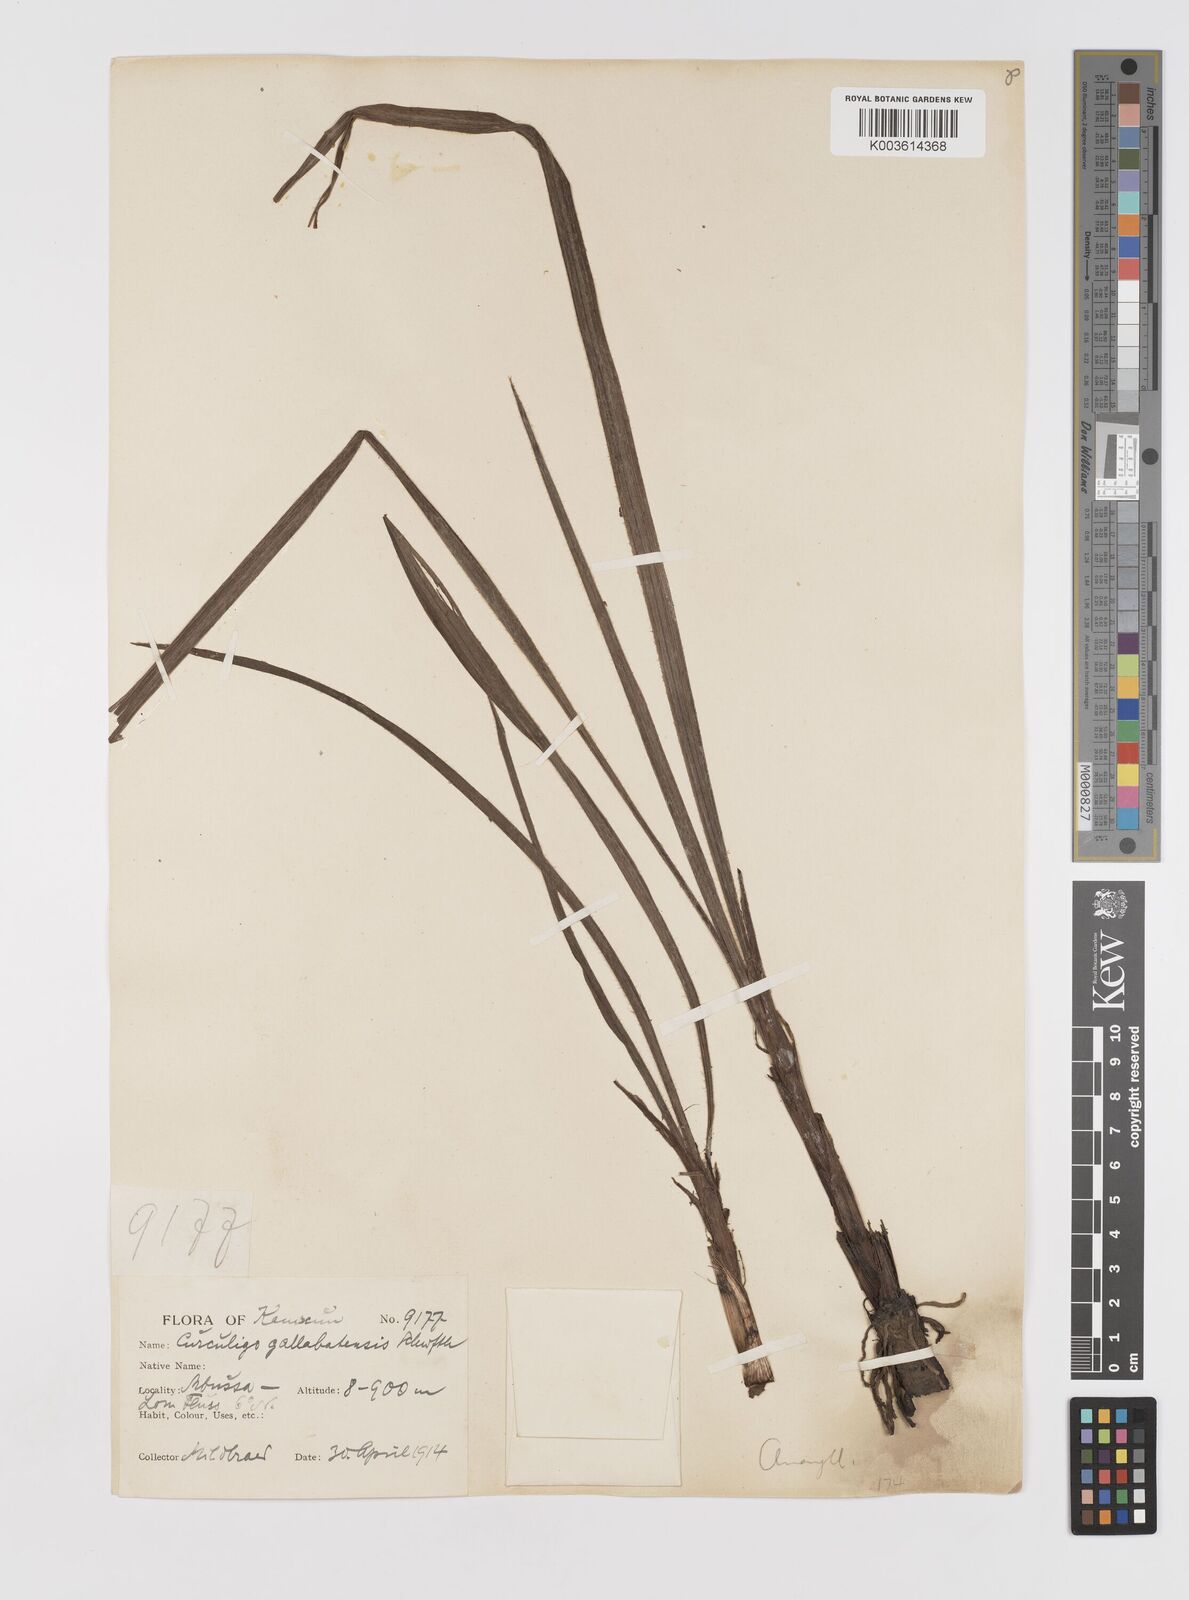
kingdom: Plantae
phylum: Tracheophyta
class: Liliopsida
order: Asparagales
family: Hypoxidaceae
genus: Curculigo
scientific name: Curculigo pilosa
